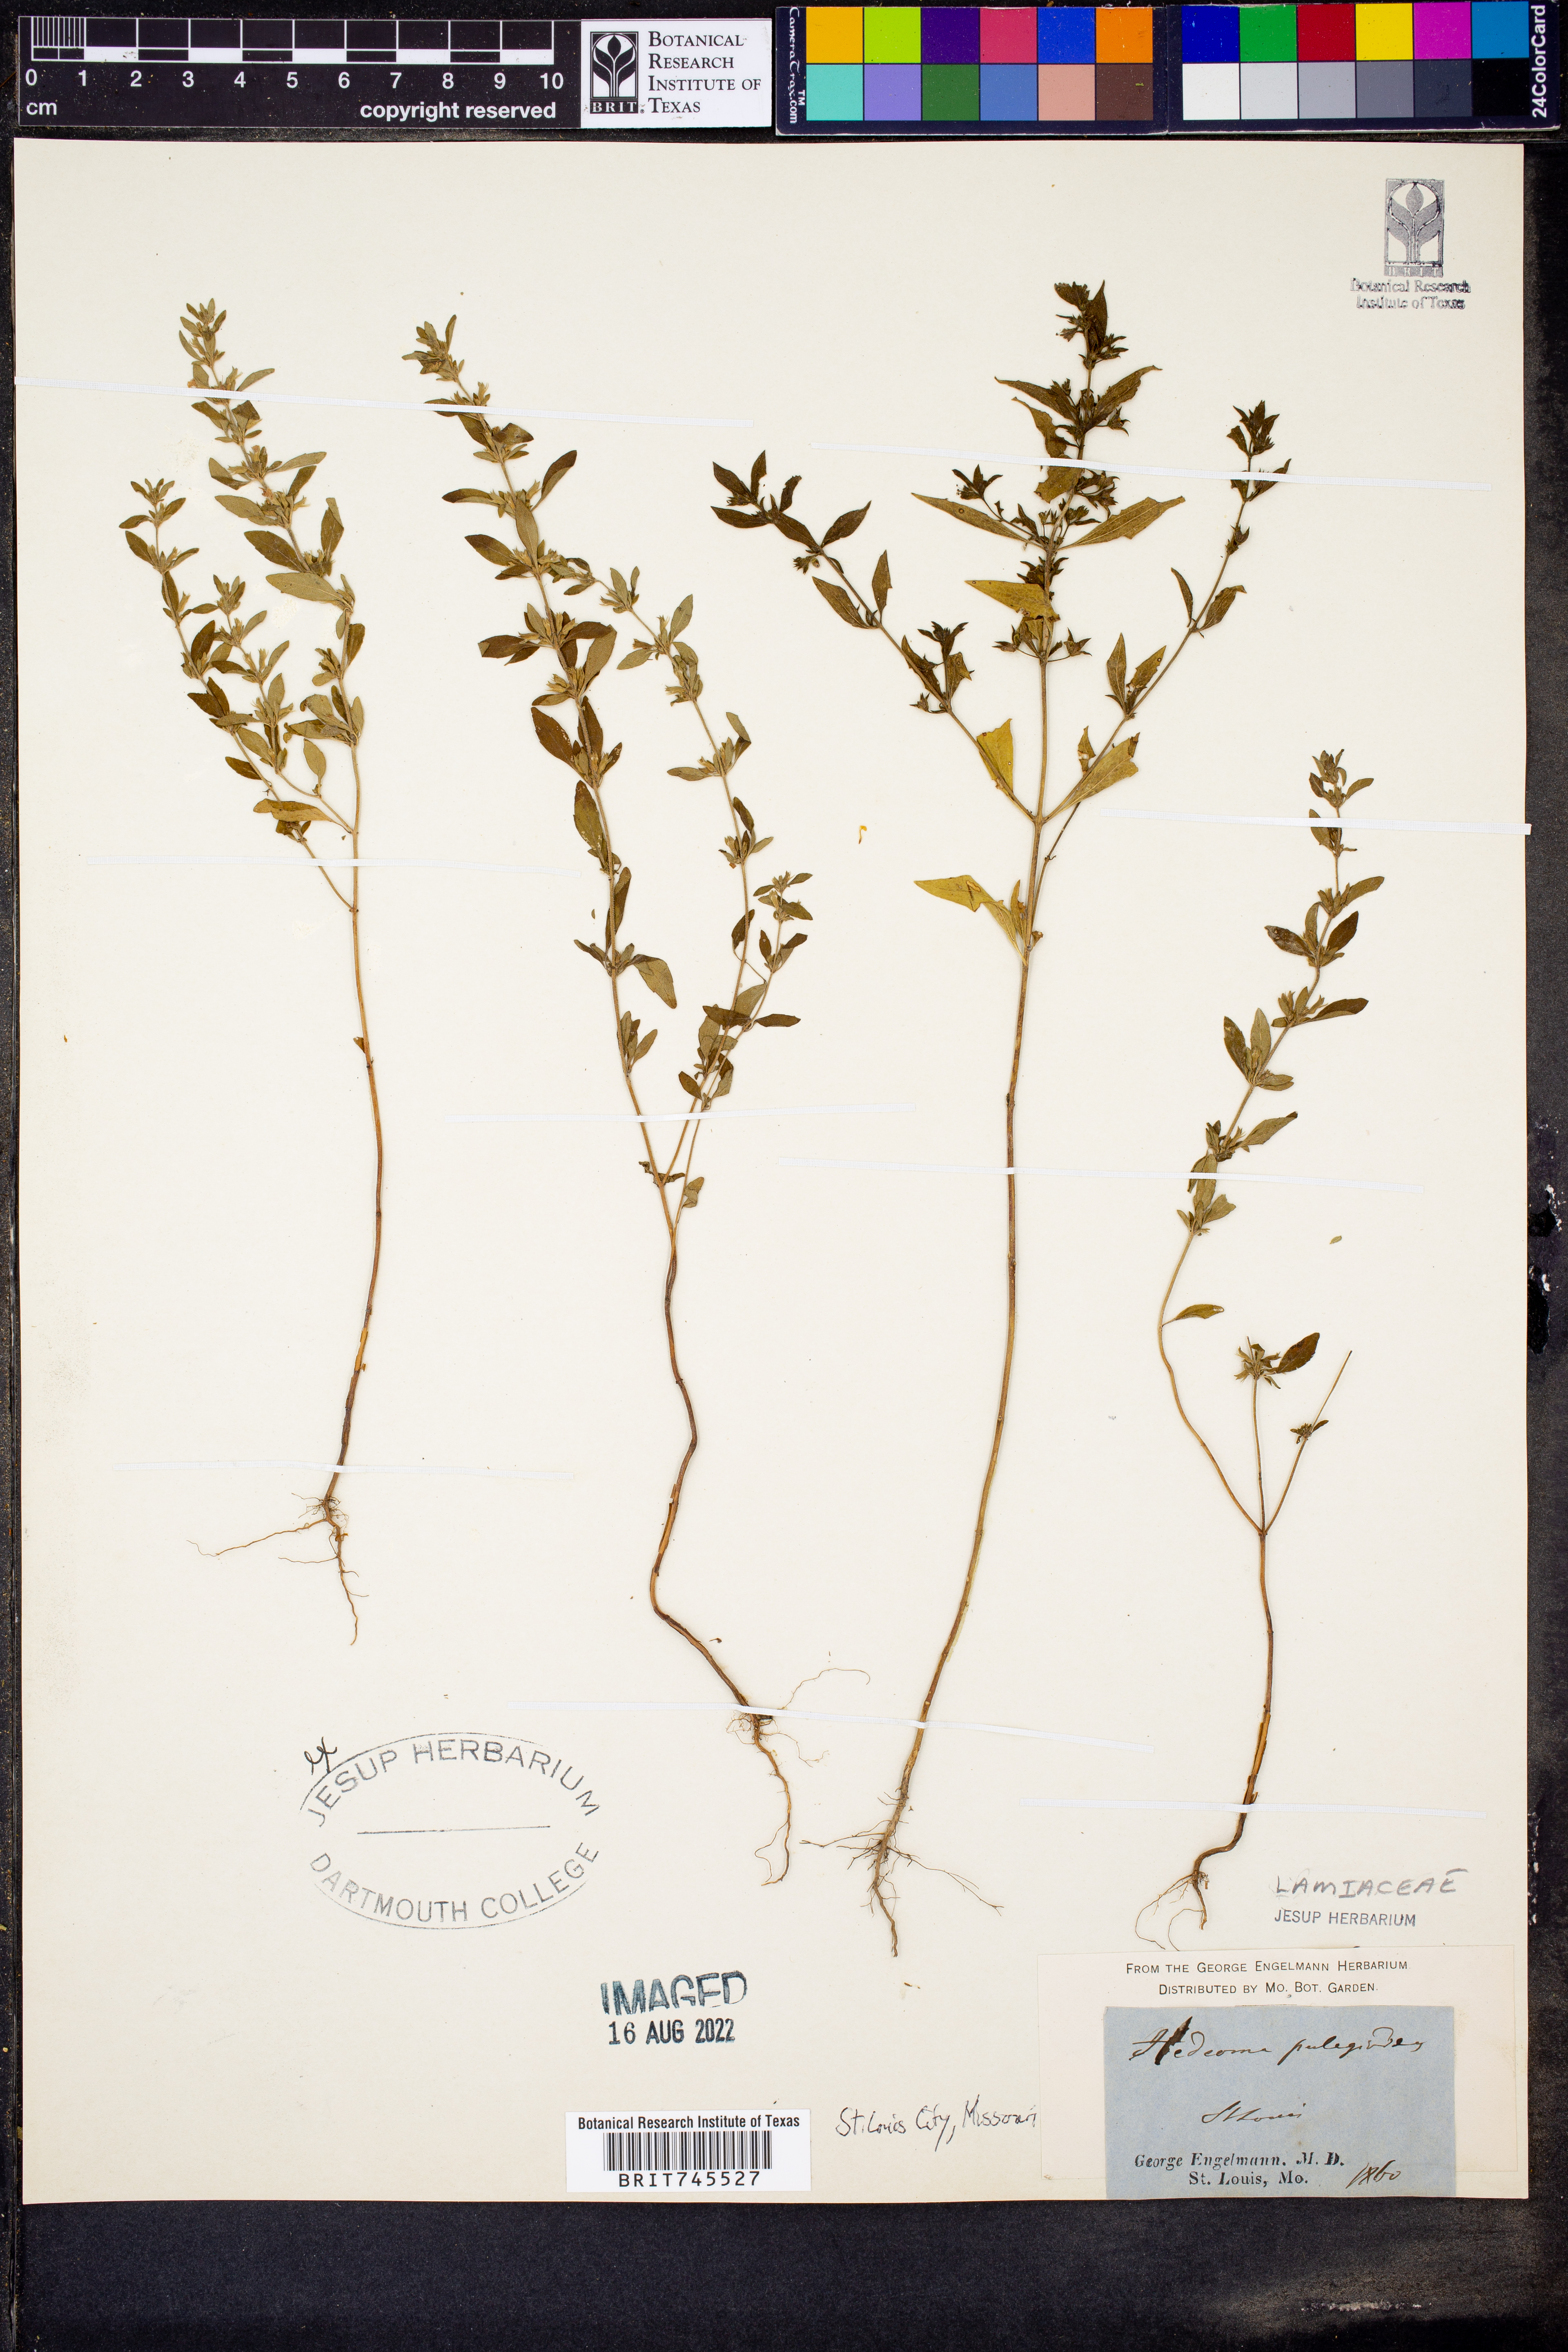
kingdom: Plantae
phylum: Tracheophyta
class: Magnoliopsida
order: Lamiales
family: Lamiaceae
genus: Hedeoma
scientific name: Hedeoma pulegioides
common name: American false pennyroyal
